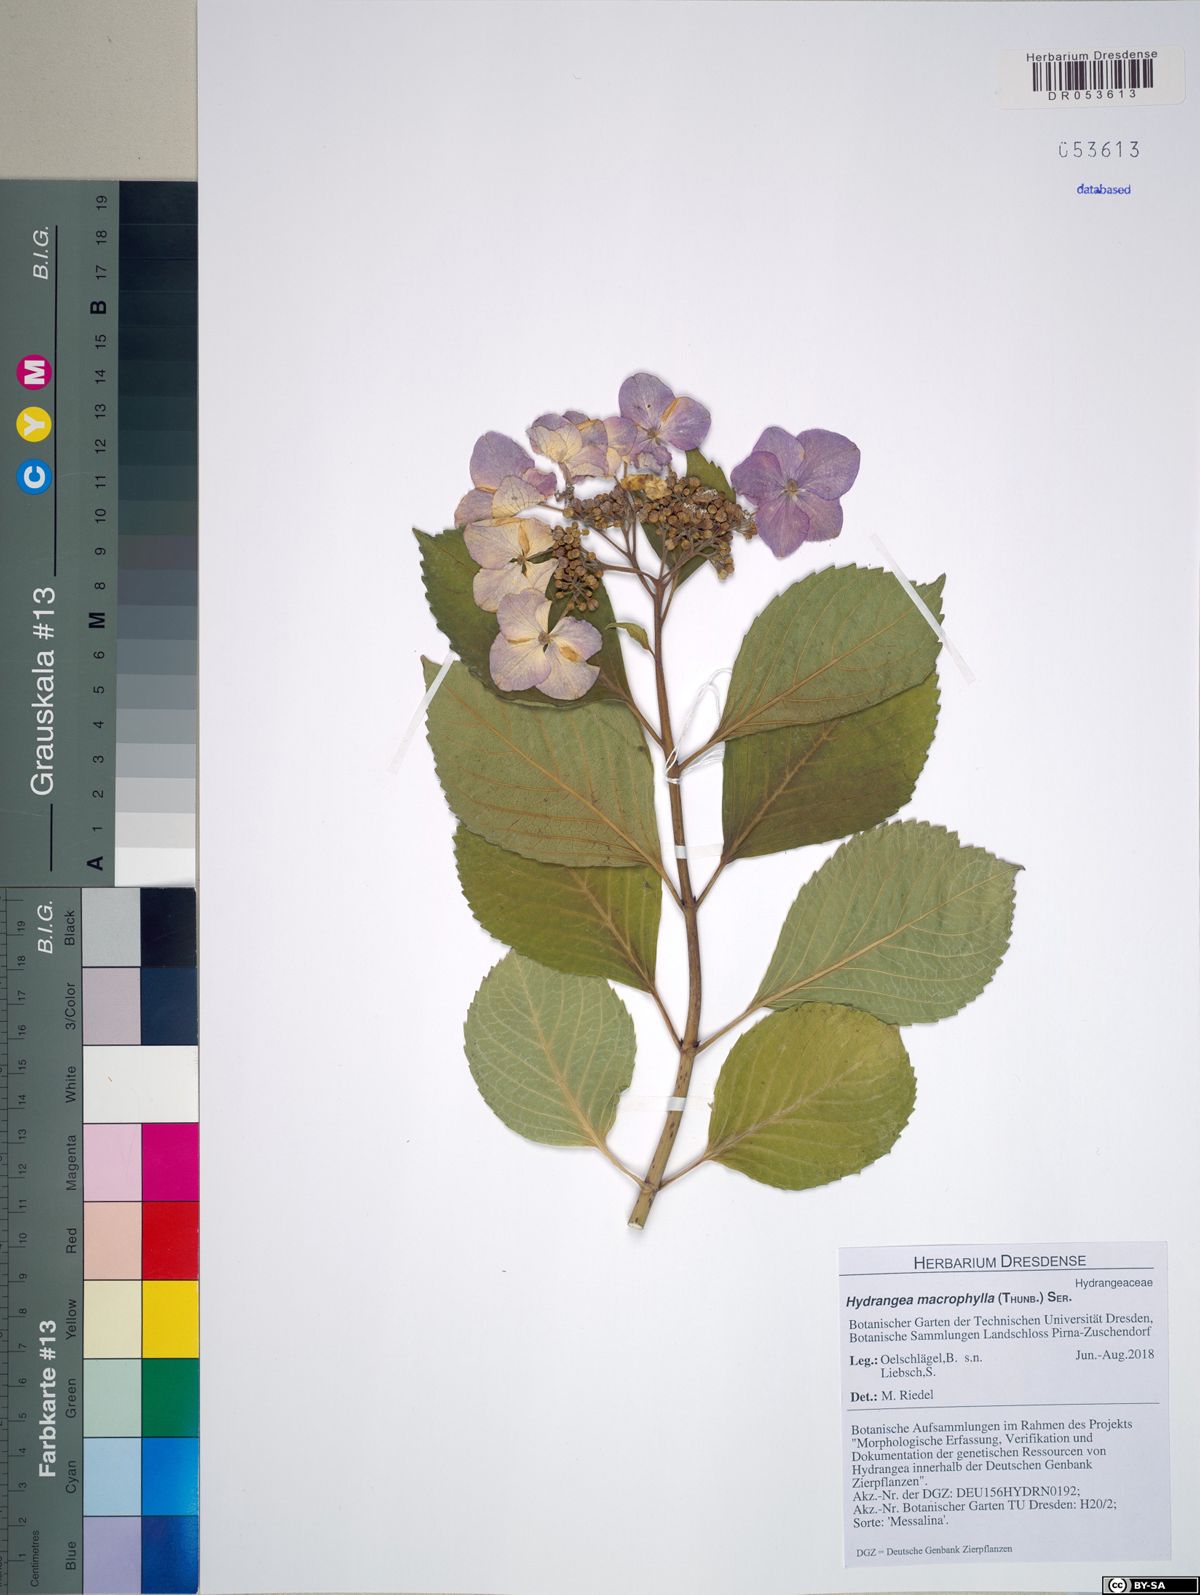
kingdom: Plantae
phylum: Tracheophyta
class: Magnoliopsida
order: Cornales
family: Hydrangeaceae
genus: Hydrangea
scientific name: Hydrangea macrophylla
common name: Hydrangea
